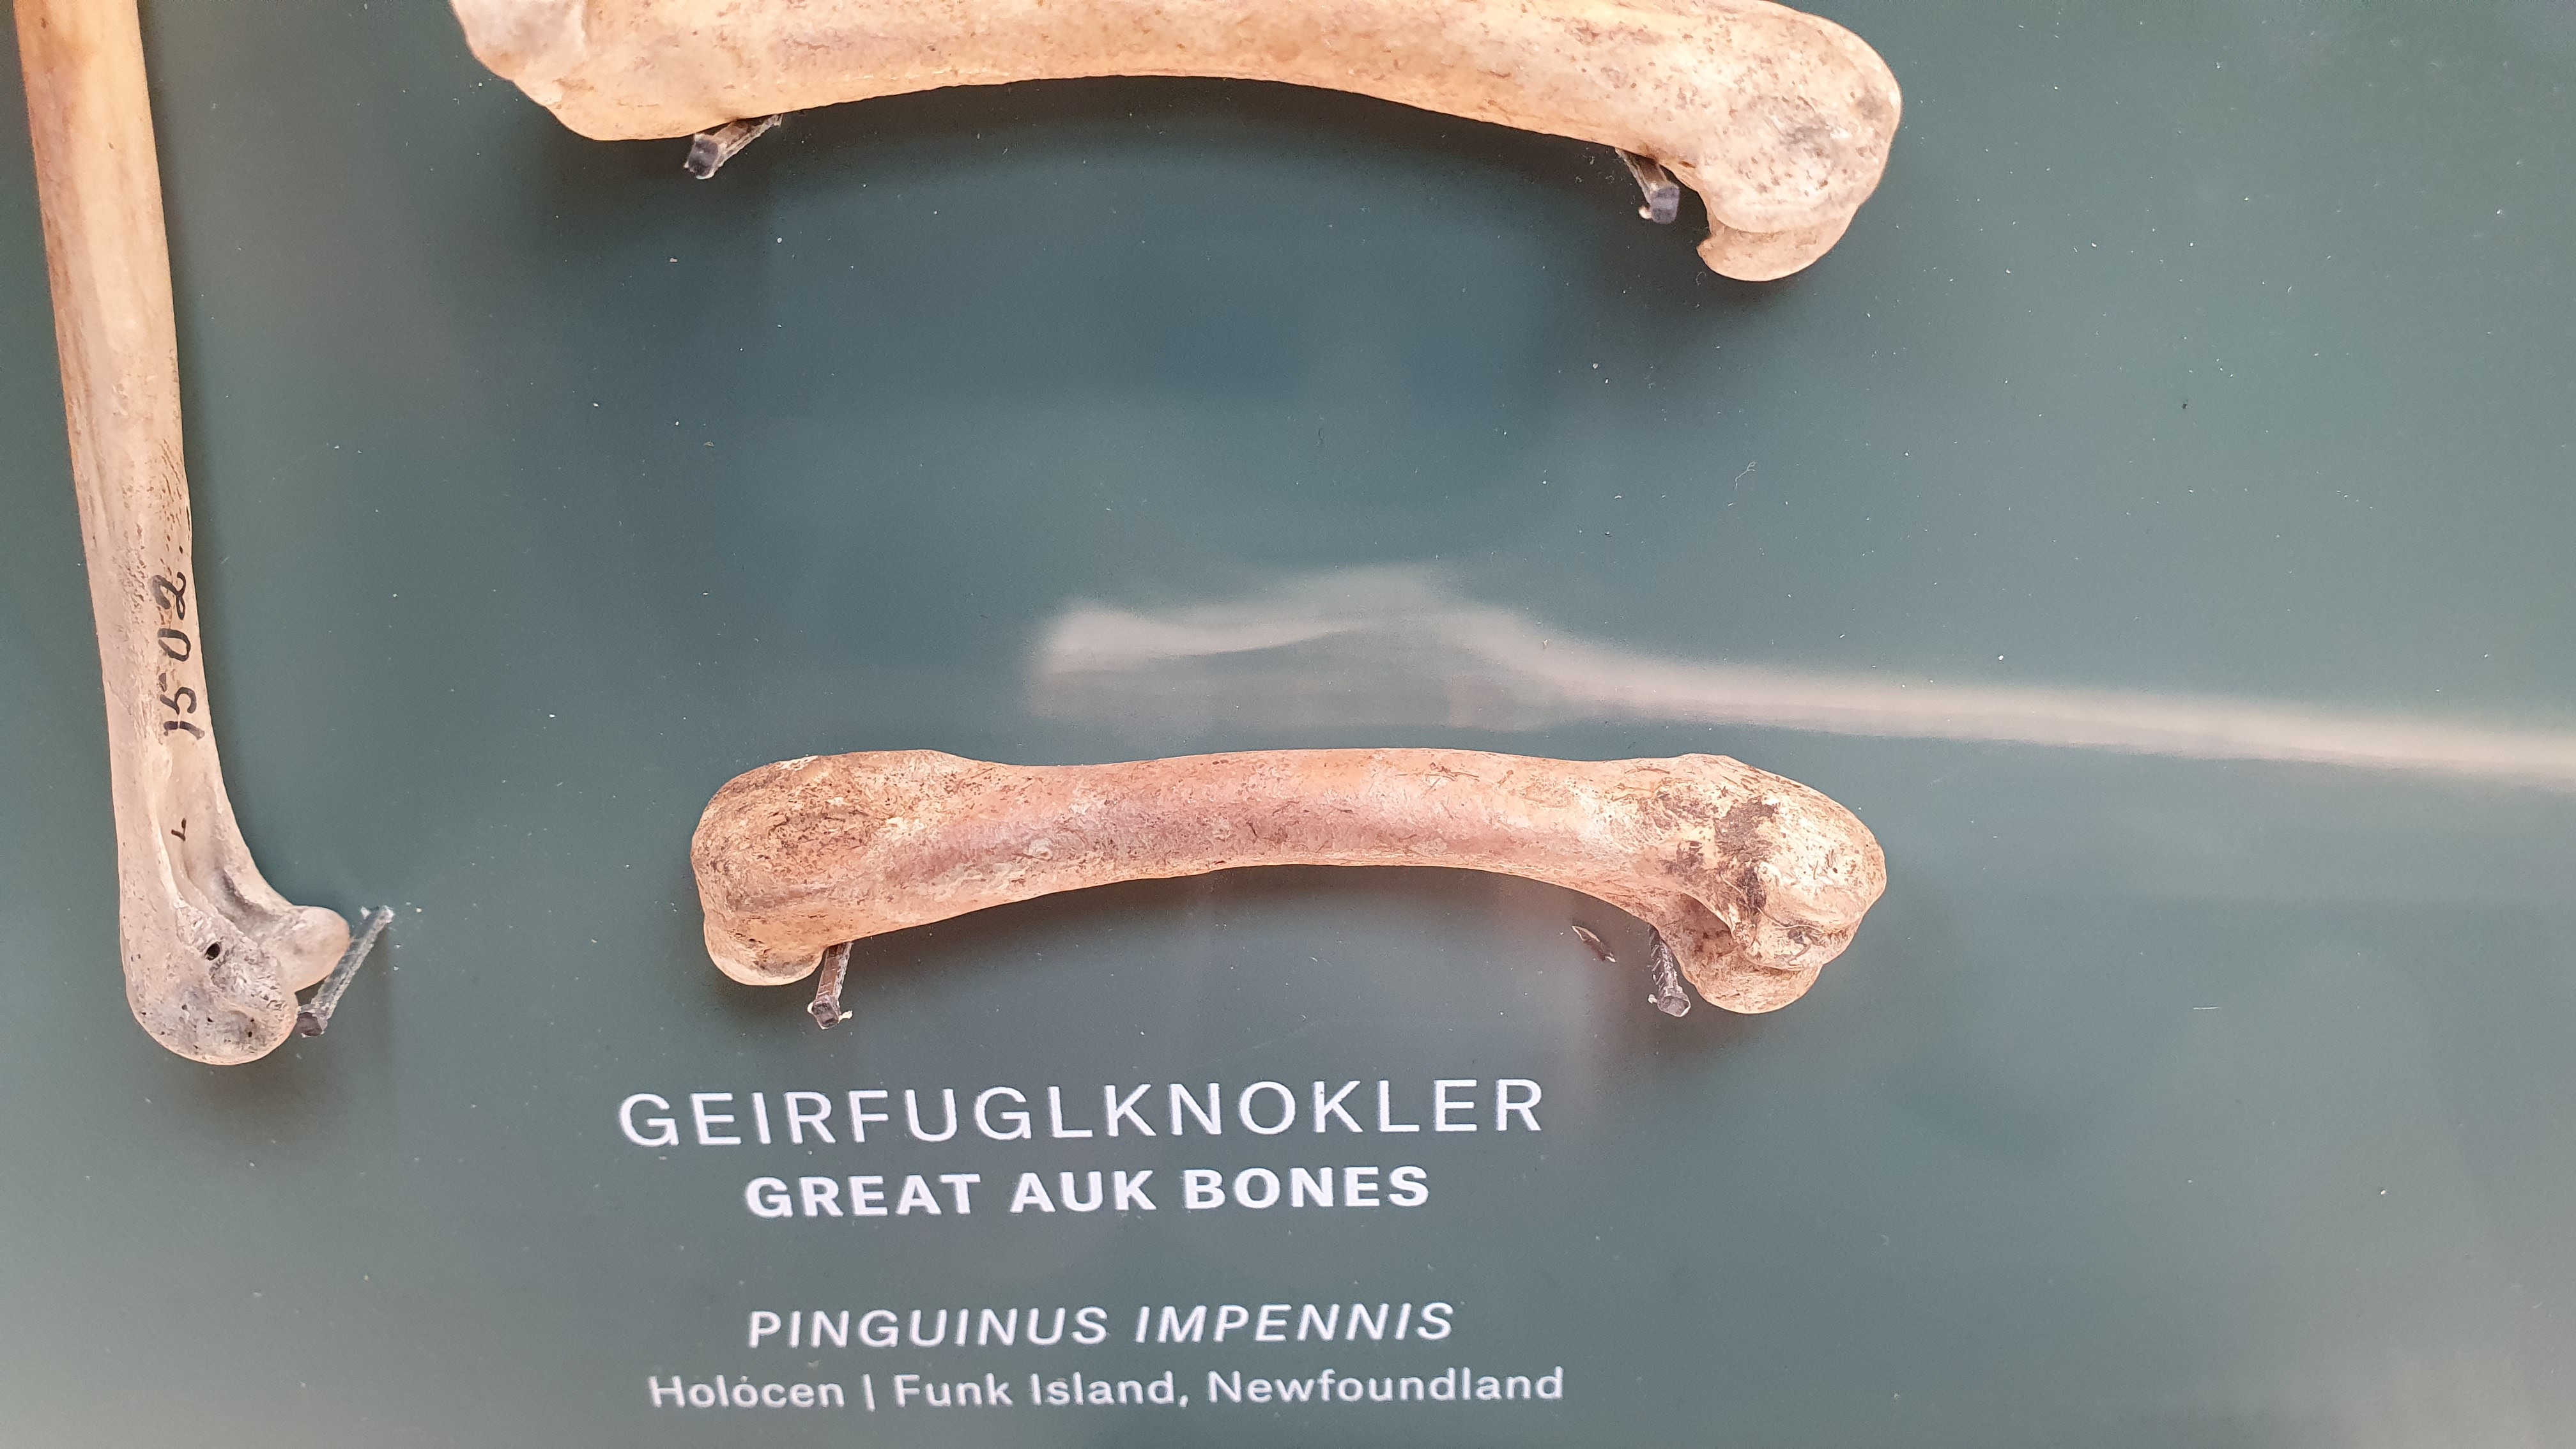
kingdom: Animalia
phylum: Chordata
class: Aves
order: Charadriiformes
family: Alcidae
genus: Pinguinus
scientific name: Pinguinus impennis
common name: Great auk
